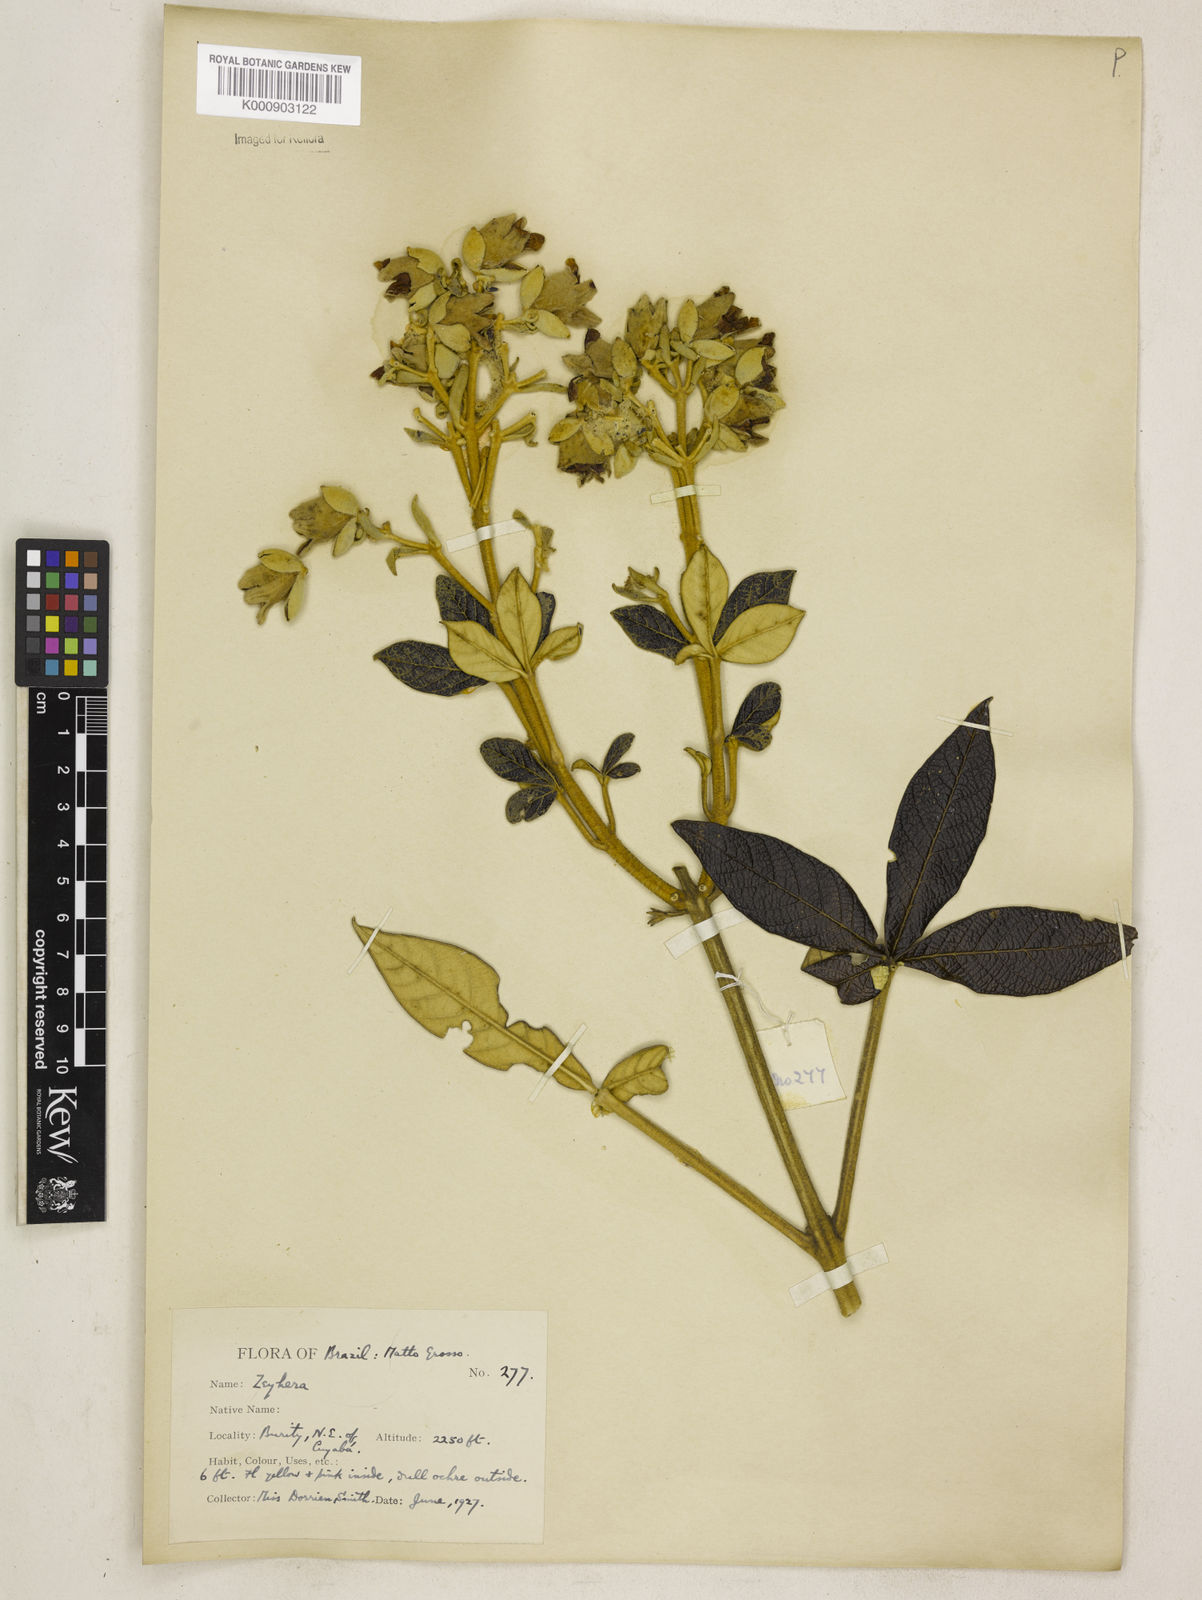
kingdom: Plantae
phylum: Tracheophyta
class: Magnoliopsida
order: Lamiales
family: Bignoniaceae
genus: Zeyheria
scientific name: Zeyheria
